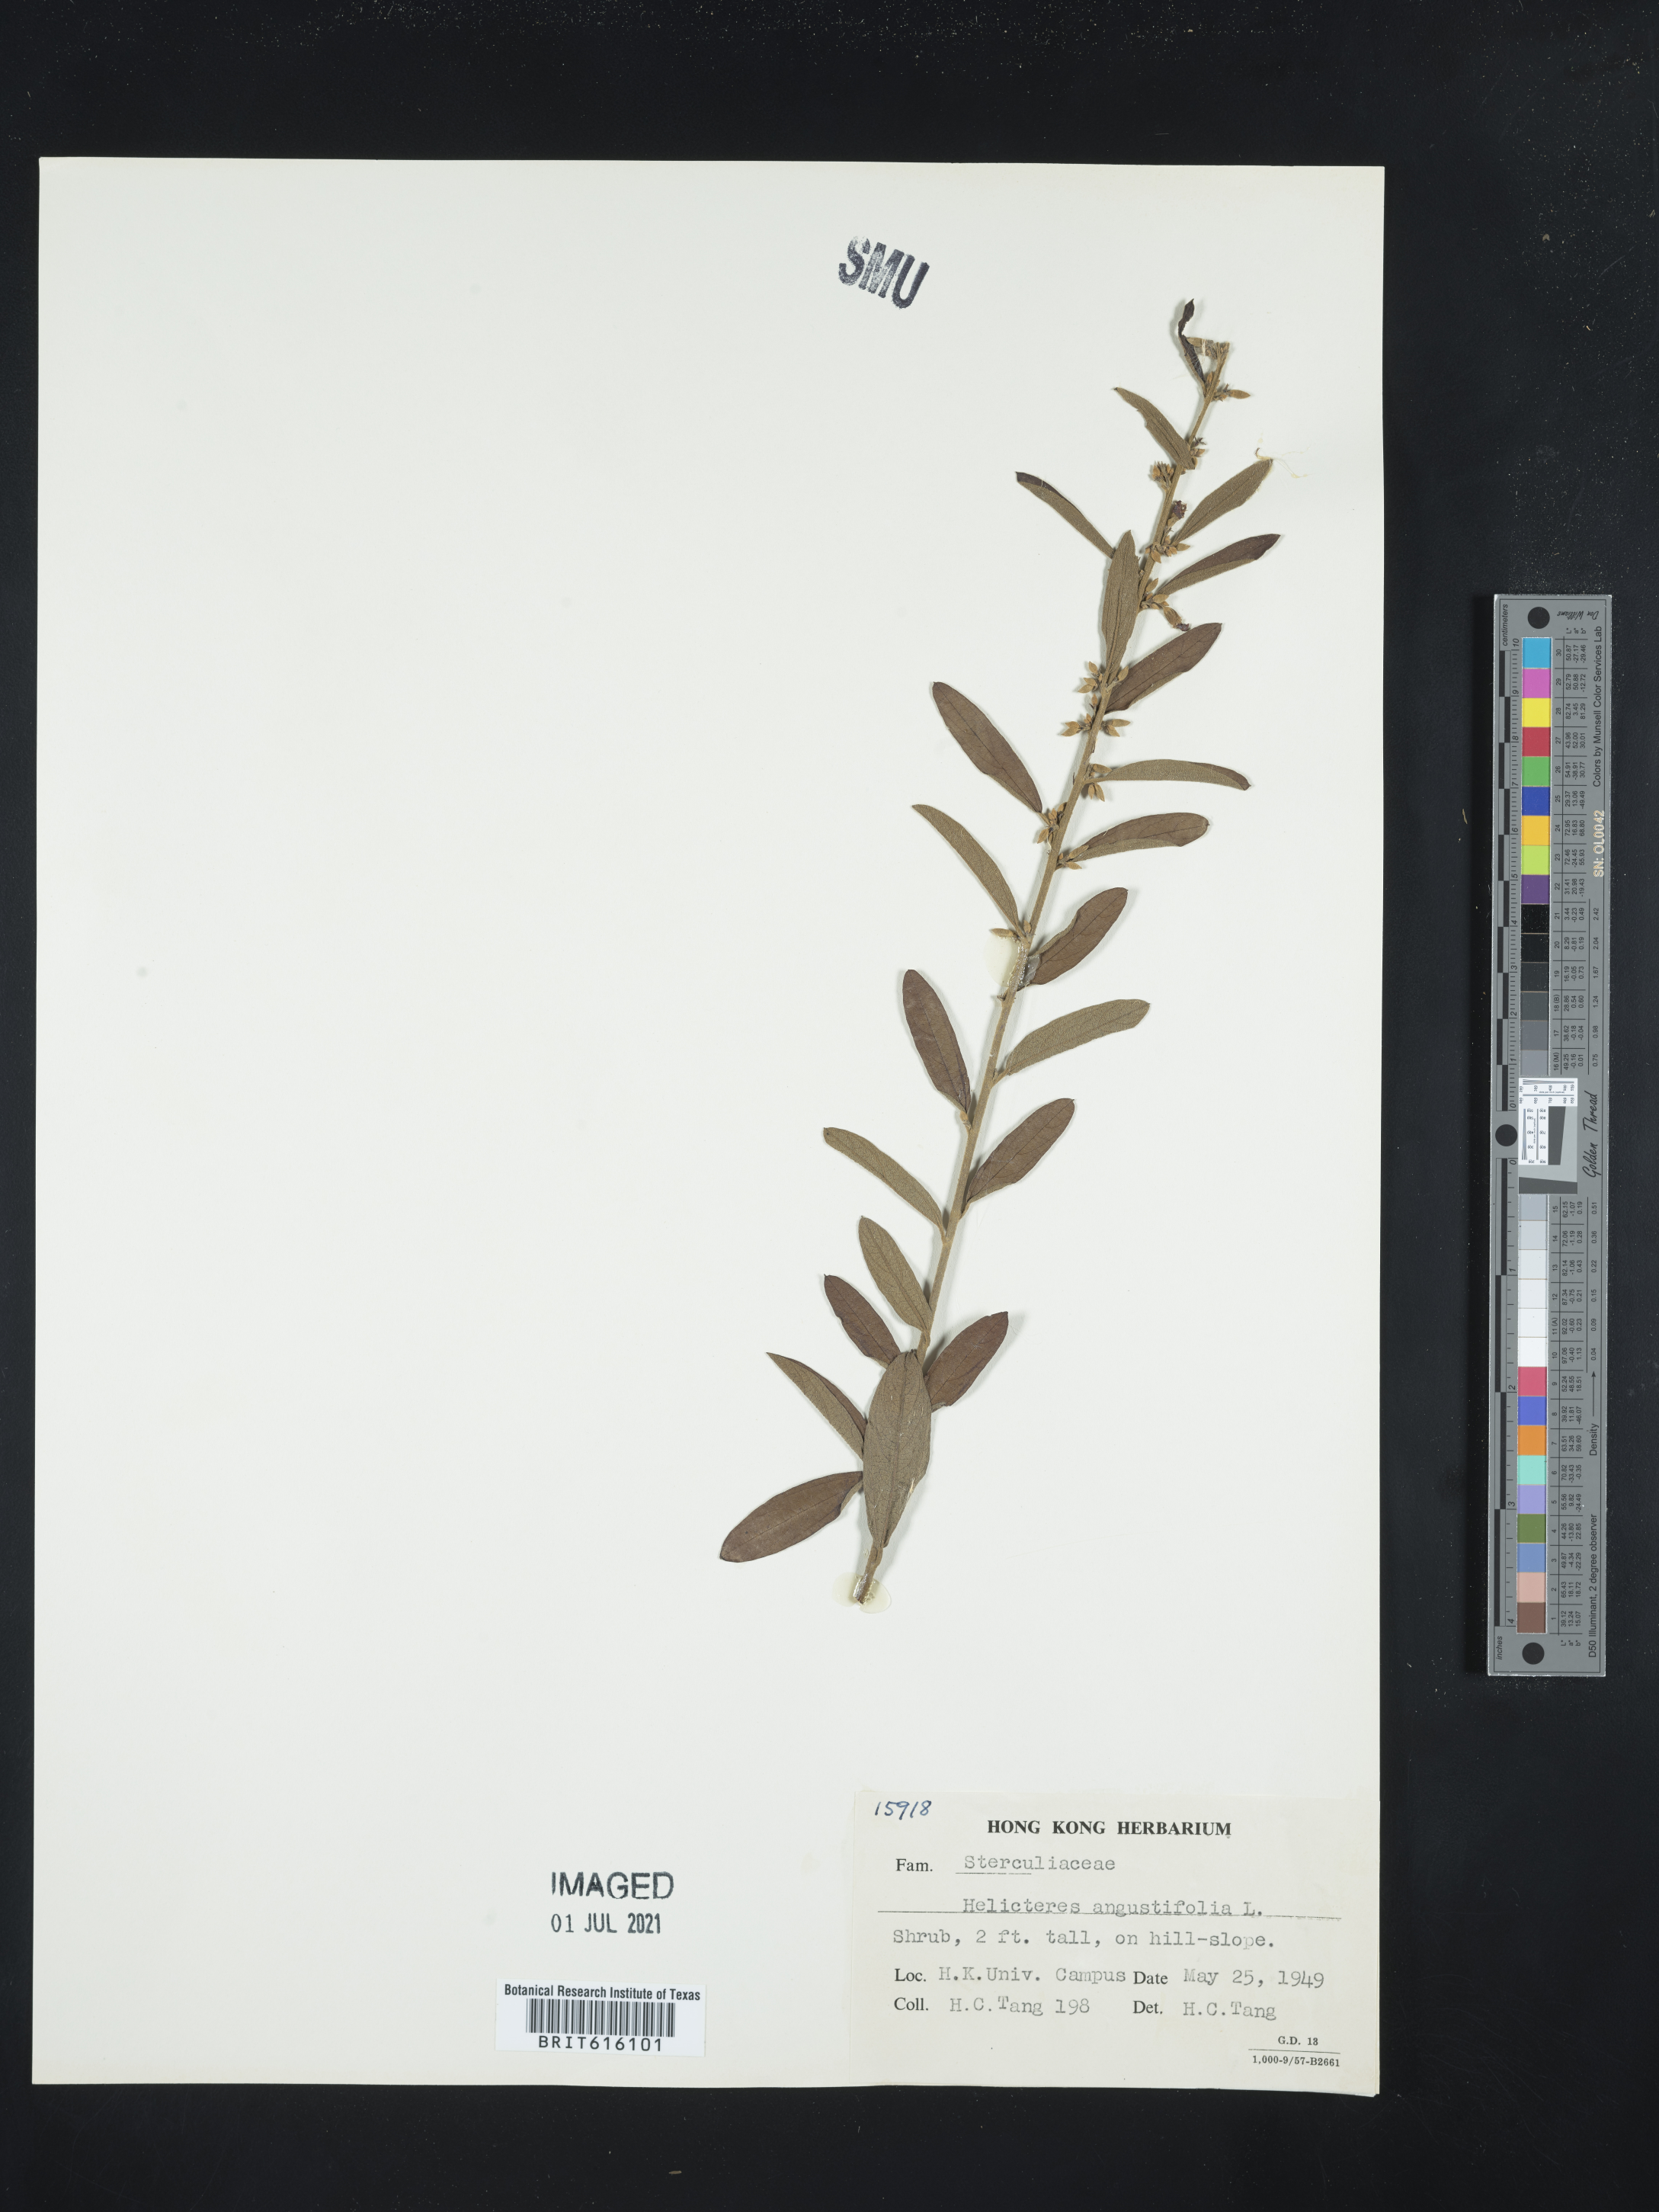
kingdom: Plantae
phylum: Tracheophyta
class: Magnoliopsida
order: Malvales
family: Malvaceae
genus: Helicteres
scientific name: Helicteres angustifolia
